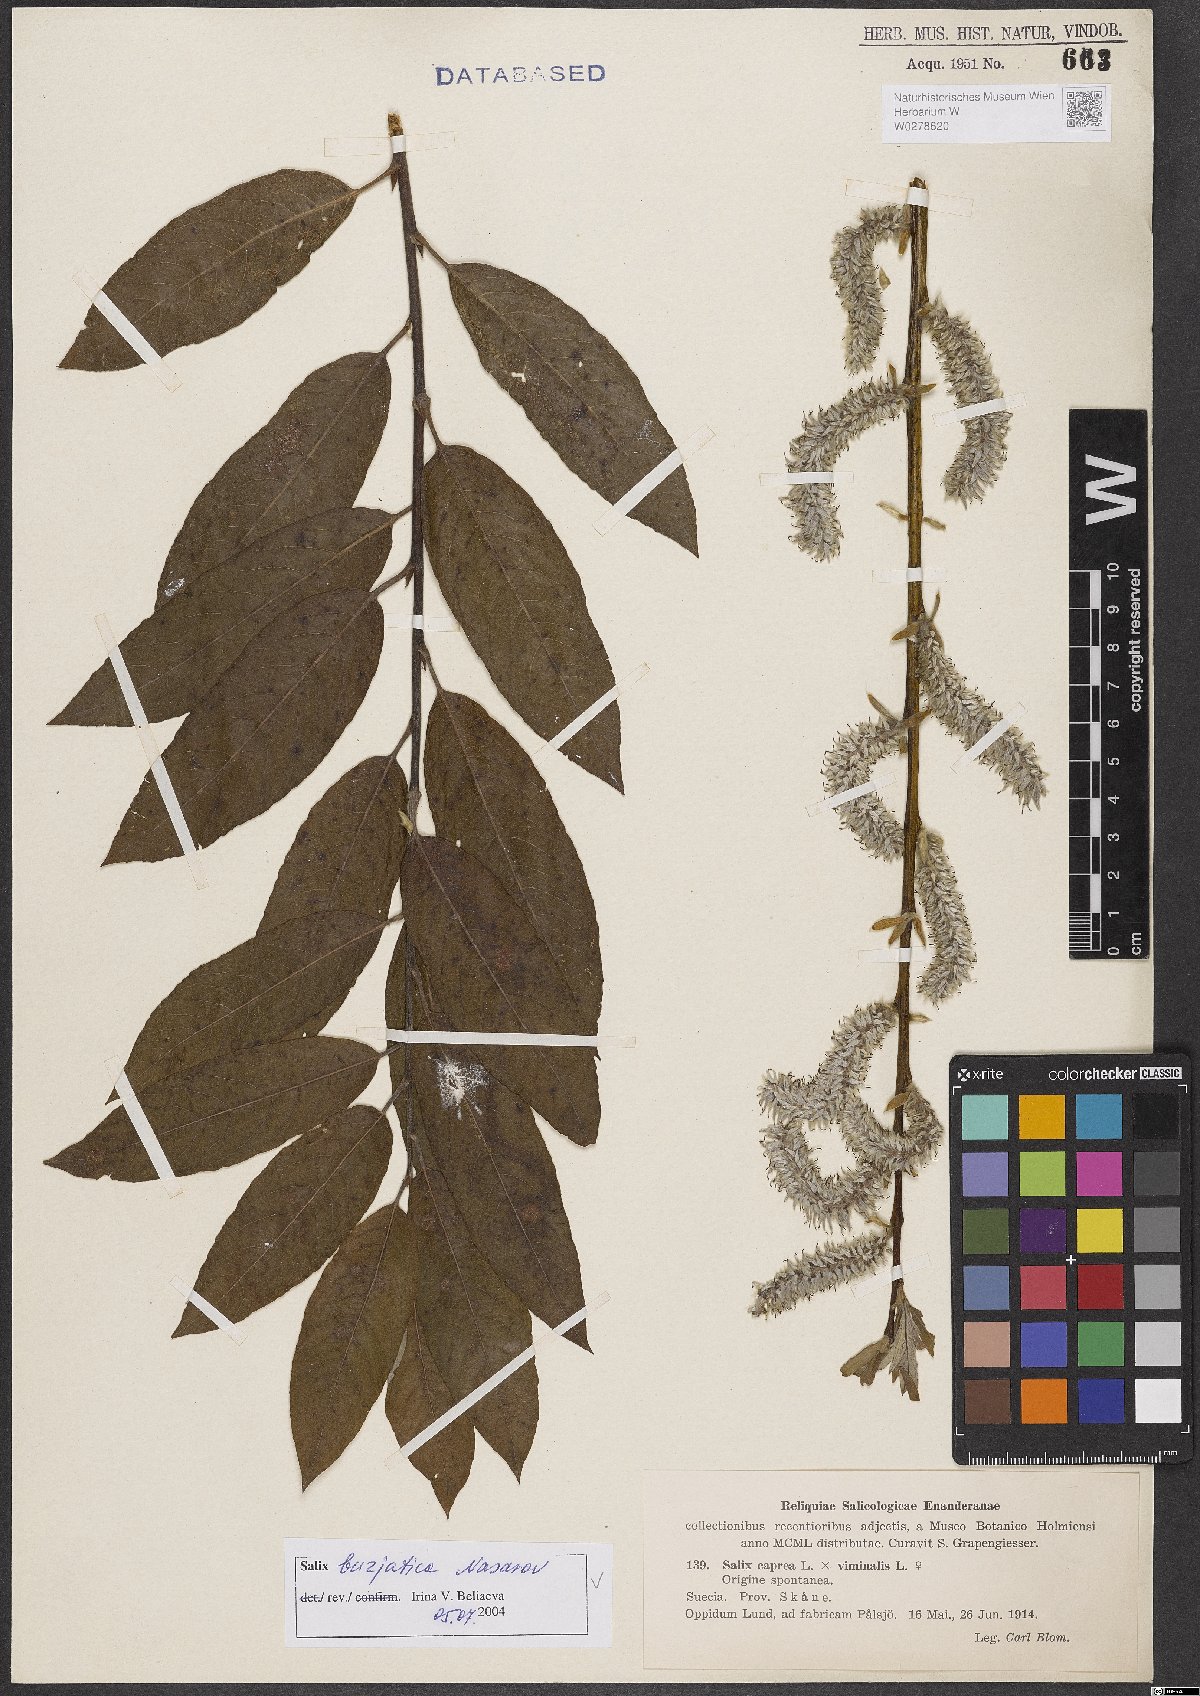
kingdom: Plantae
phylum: Tracheophyta
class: Magnoliopsida
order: Malpighiales
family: Salicaceae
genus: Salix
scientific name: Salix gmelinii
